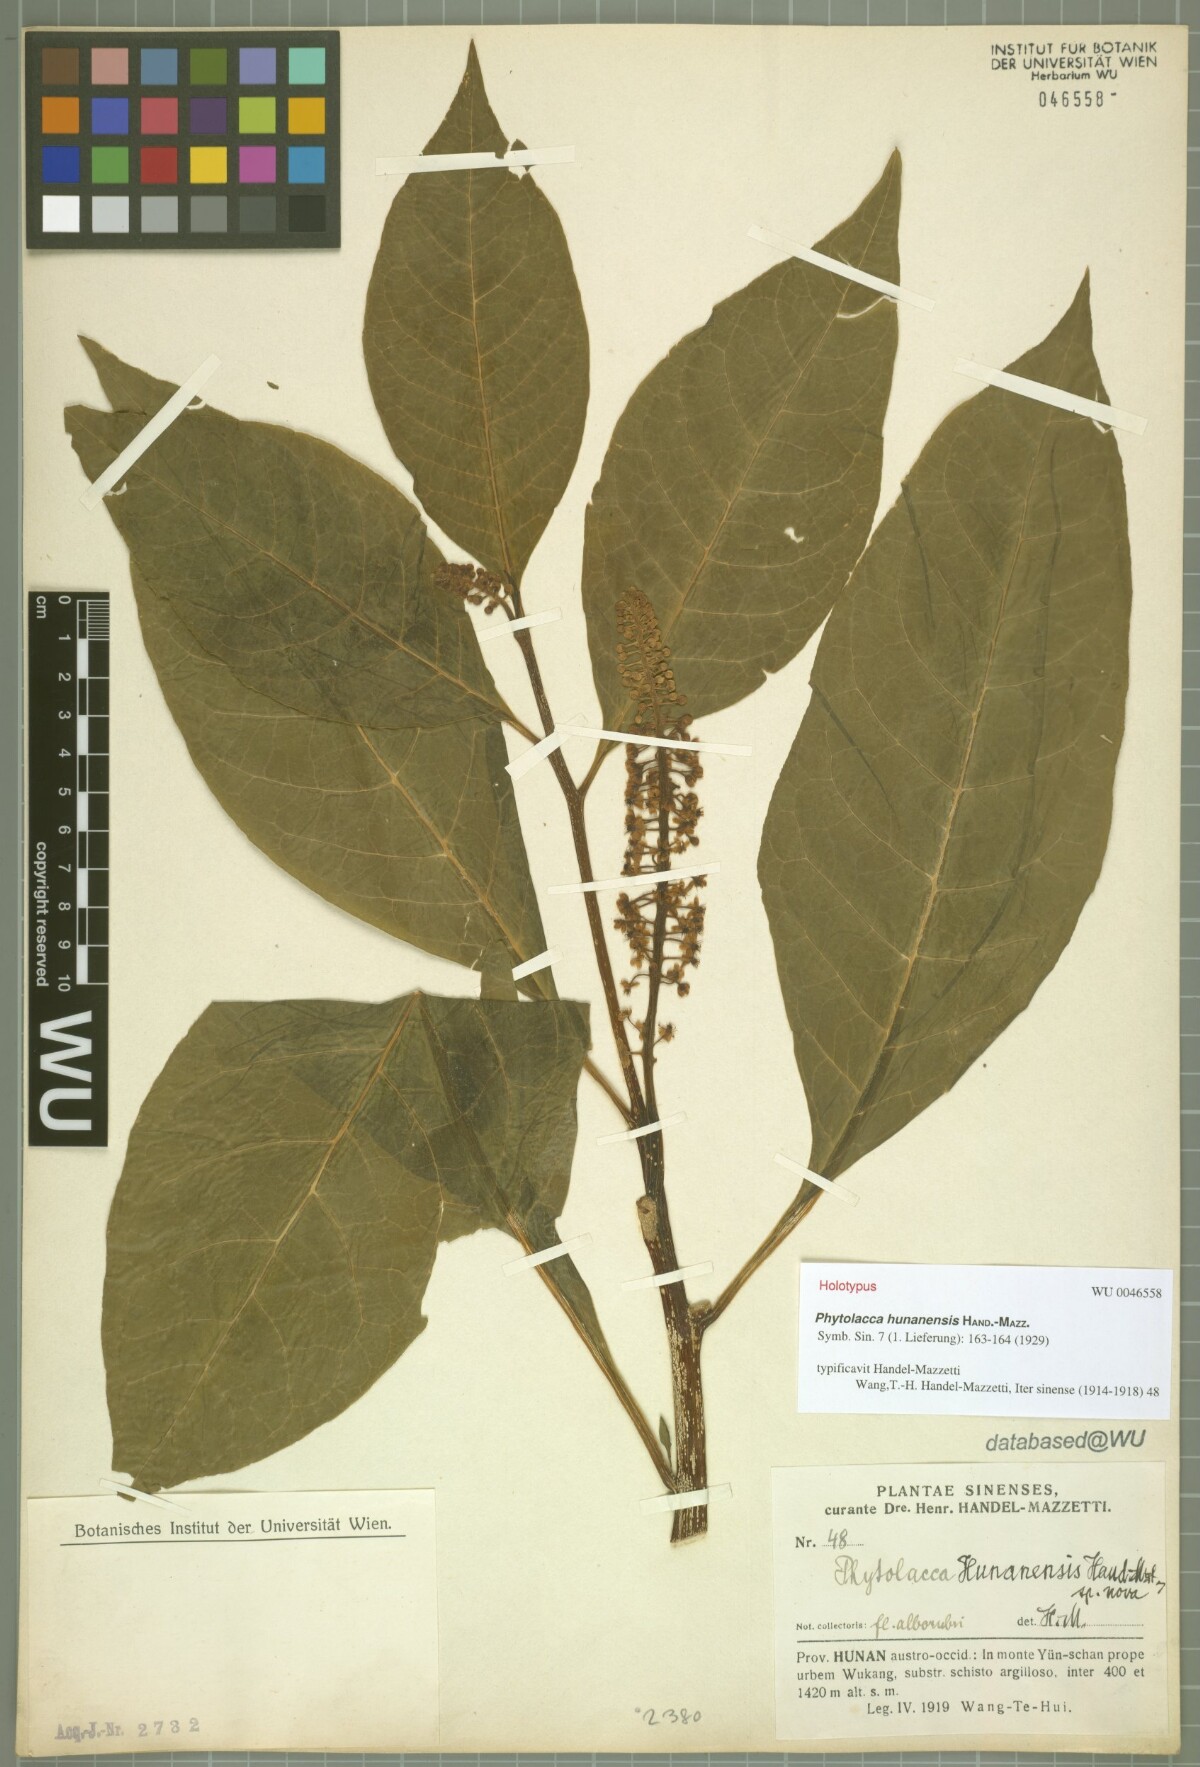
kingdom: Plantae
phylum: Tracheophyta
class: Magnoliopsida
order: Caryophyllales
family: Phytolaccaceae
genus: Phytolacca
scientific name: Phytolacca japonica
